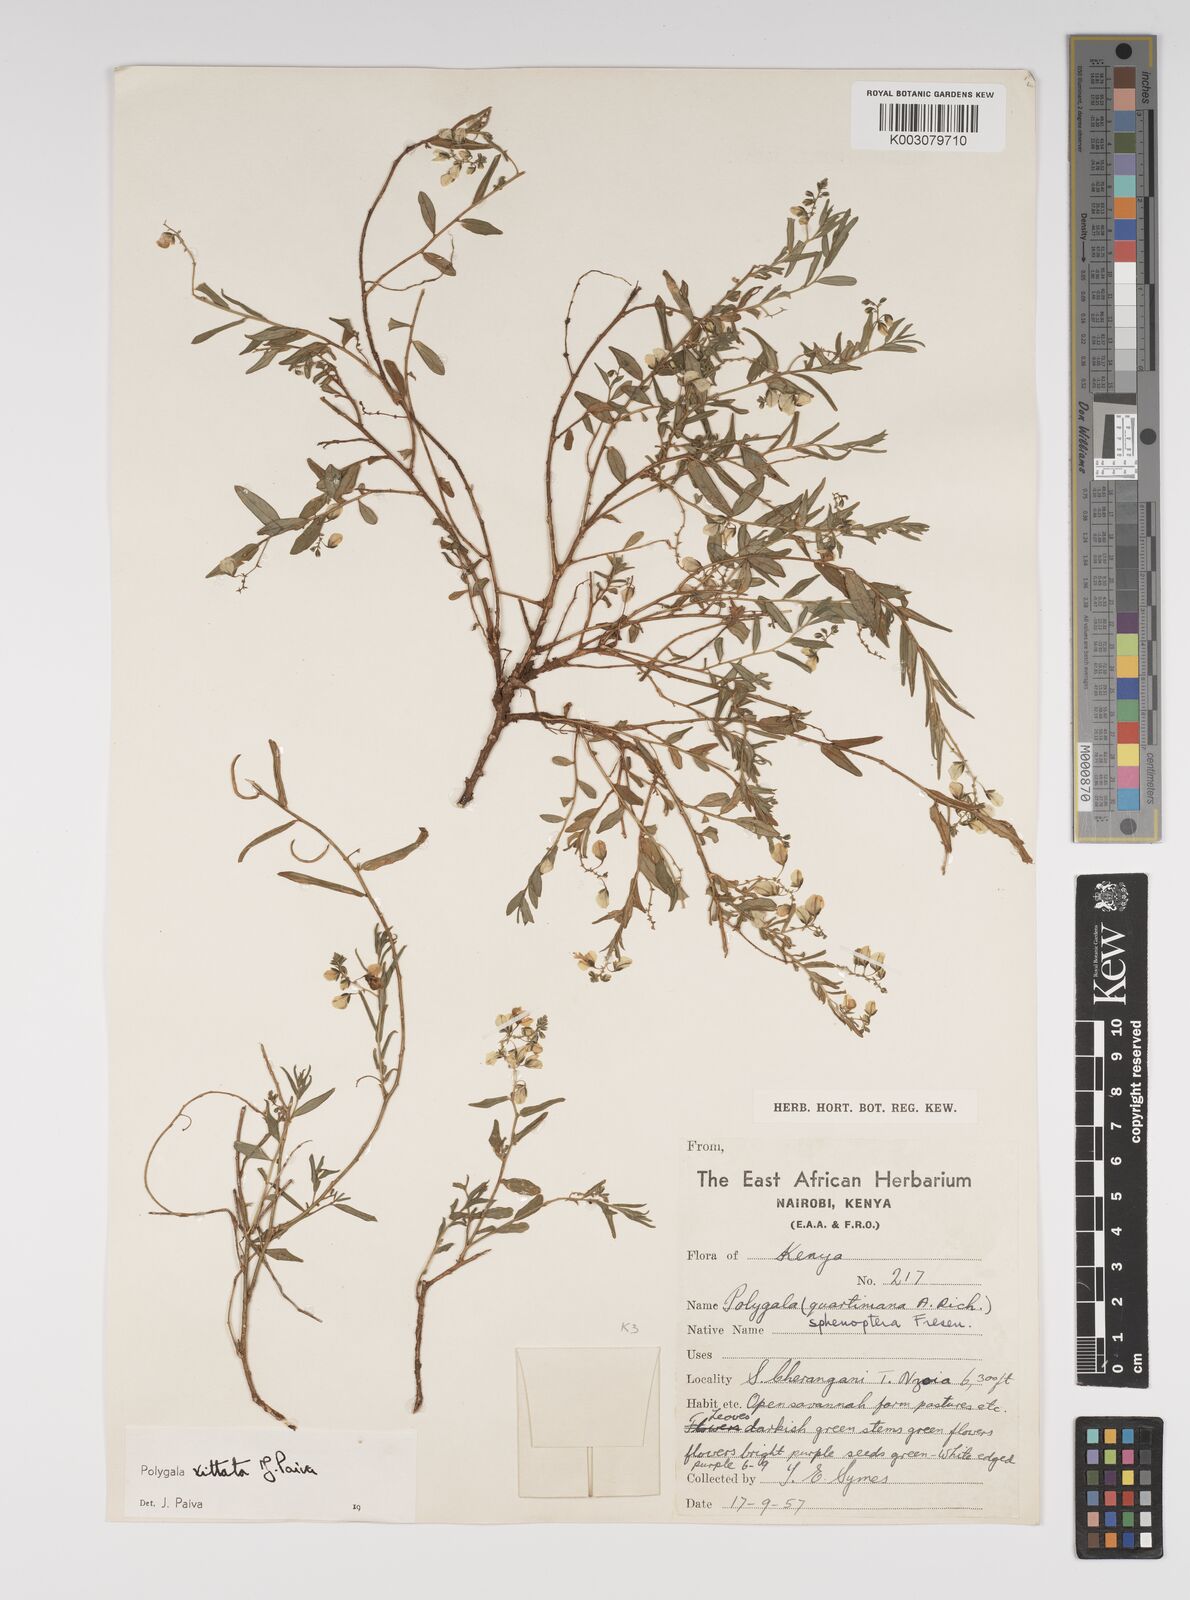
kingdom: Plantae
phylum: Tracheophyta
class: Magnoliopsida
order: Fabales
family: Polygalaceae
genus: Polygala
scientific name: Polygala vittata
